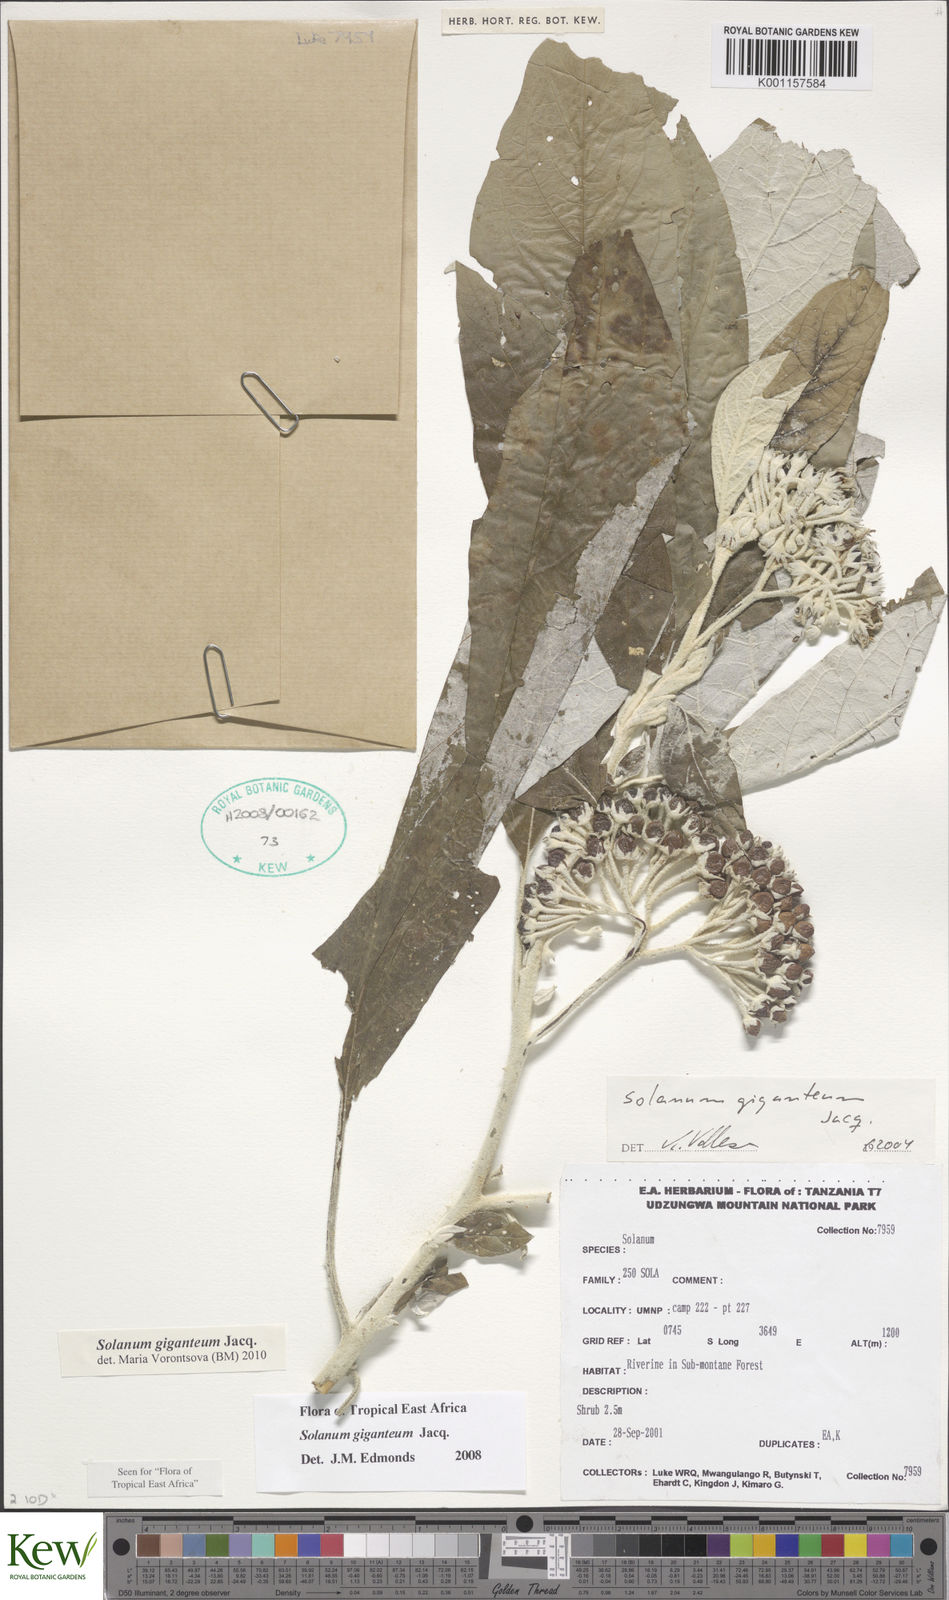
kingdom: Plantae
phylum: Tracheophyta
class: Magnoliopsida
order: Solanales
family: Solanaceae
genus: Solanum
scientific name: Solanum giganteum
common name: Healing-leaf-tree
